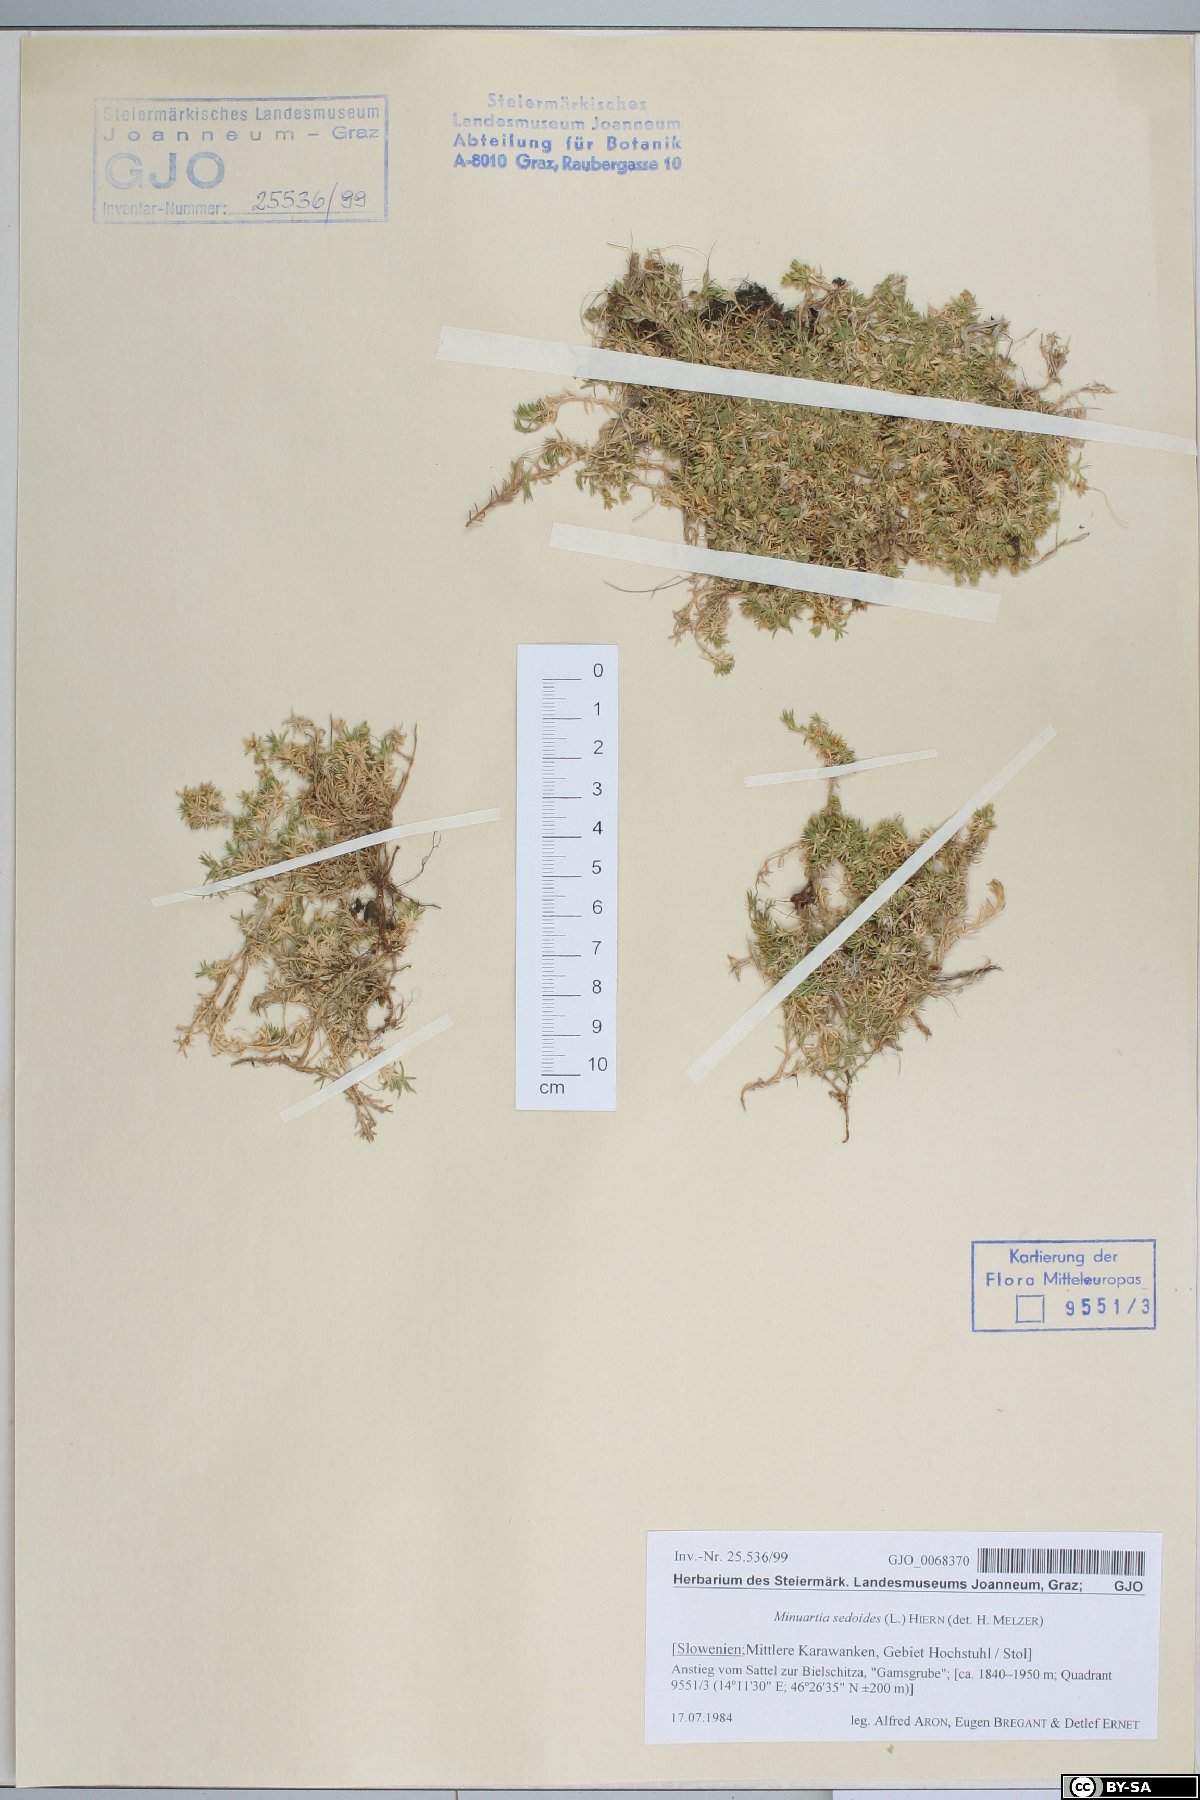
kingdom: Plantae
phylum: Tracheophyta
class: Magnoliopsida
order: Caryophyllales
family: Caryophyllaceae
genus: Cherleria
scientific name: Cherleria sedoides
